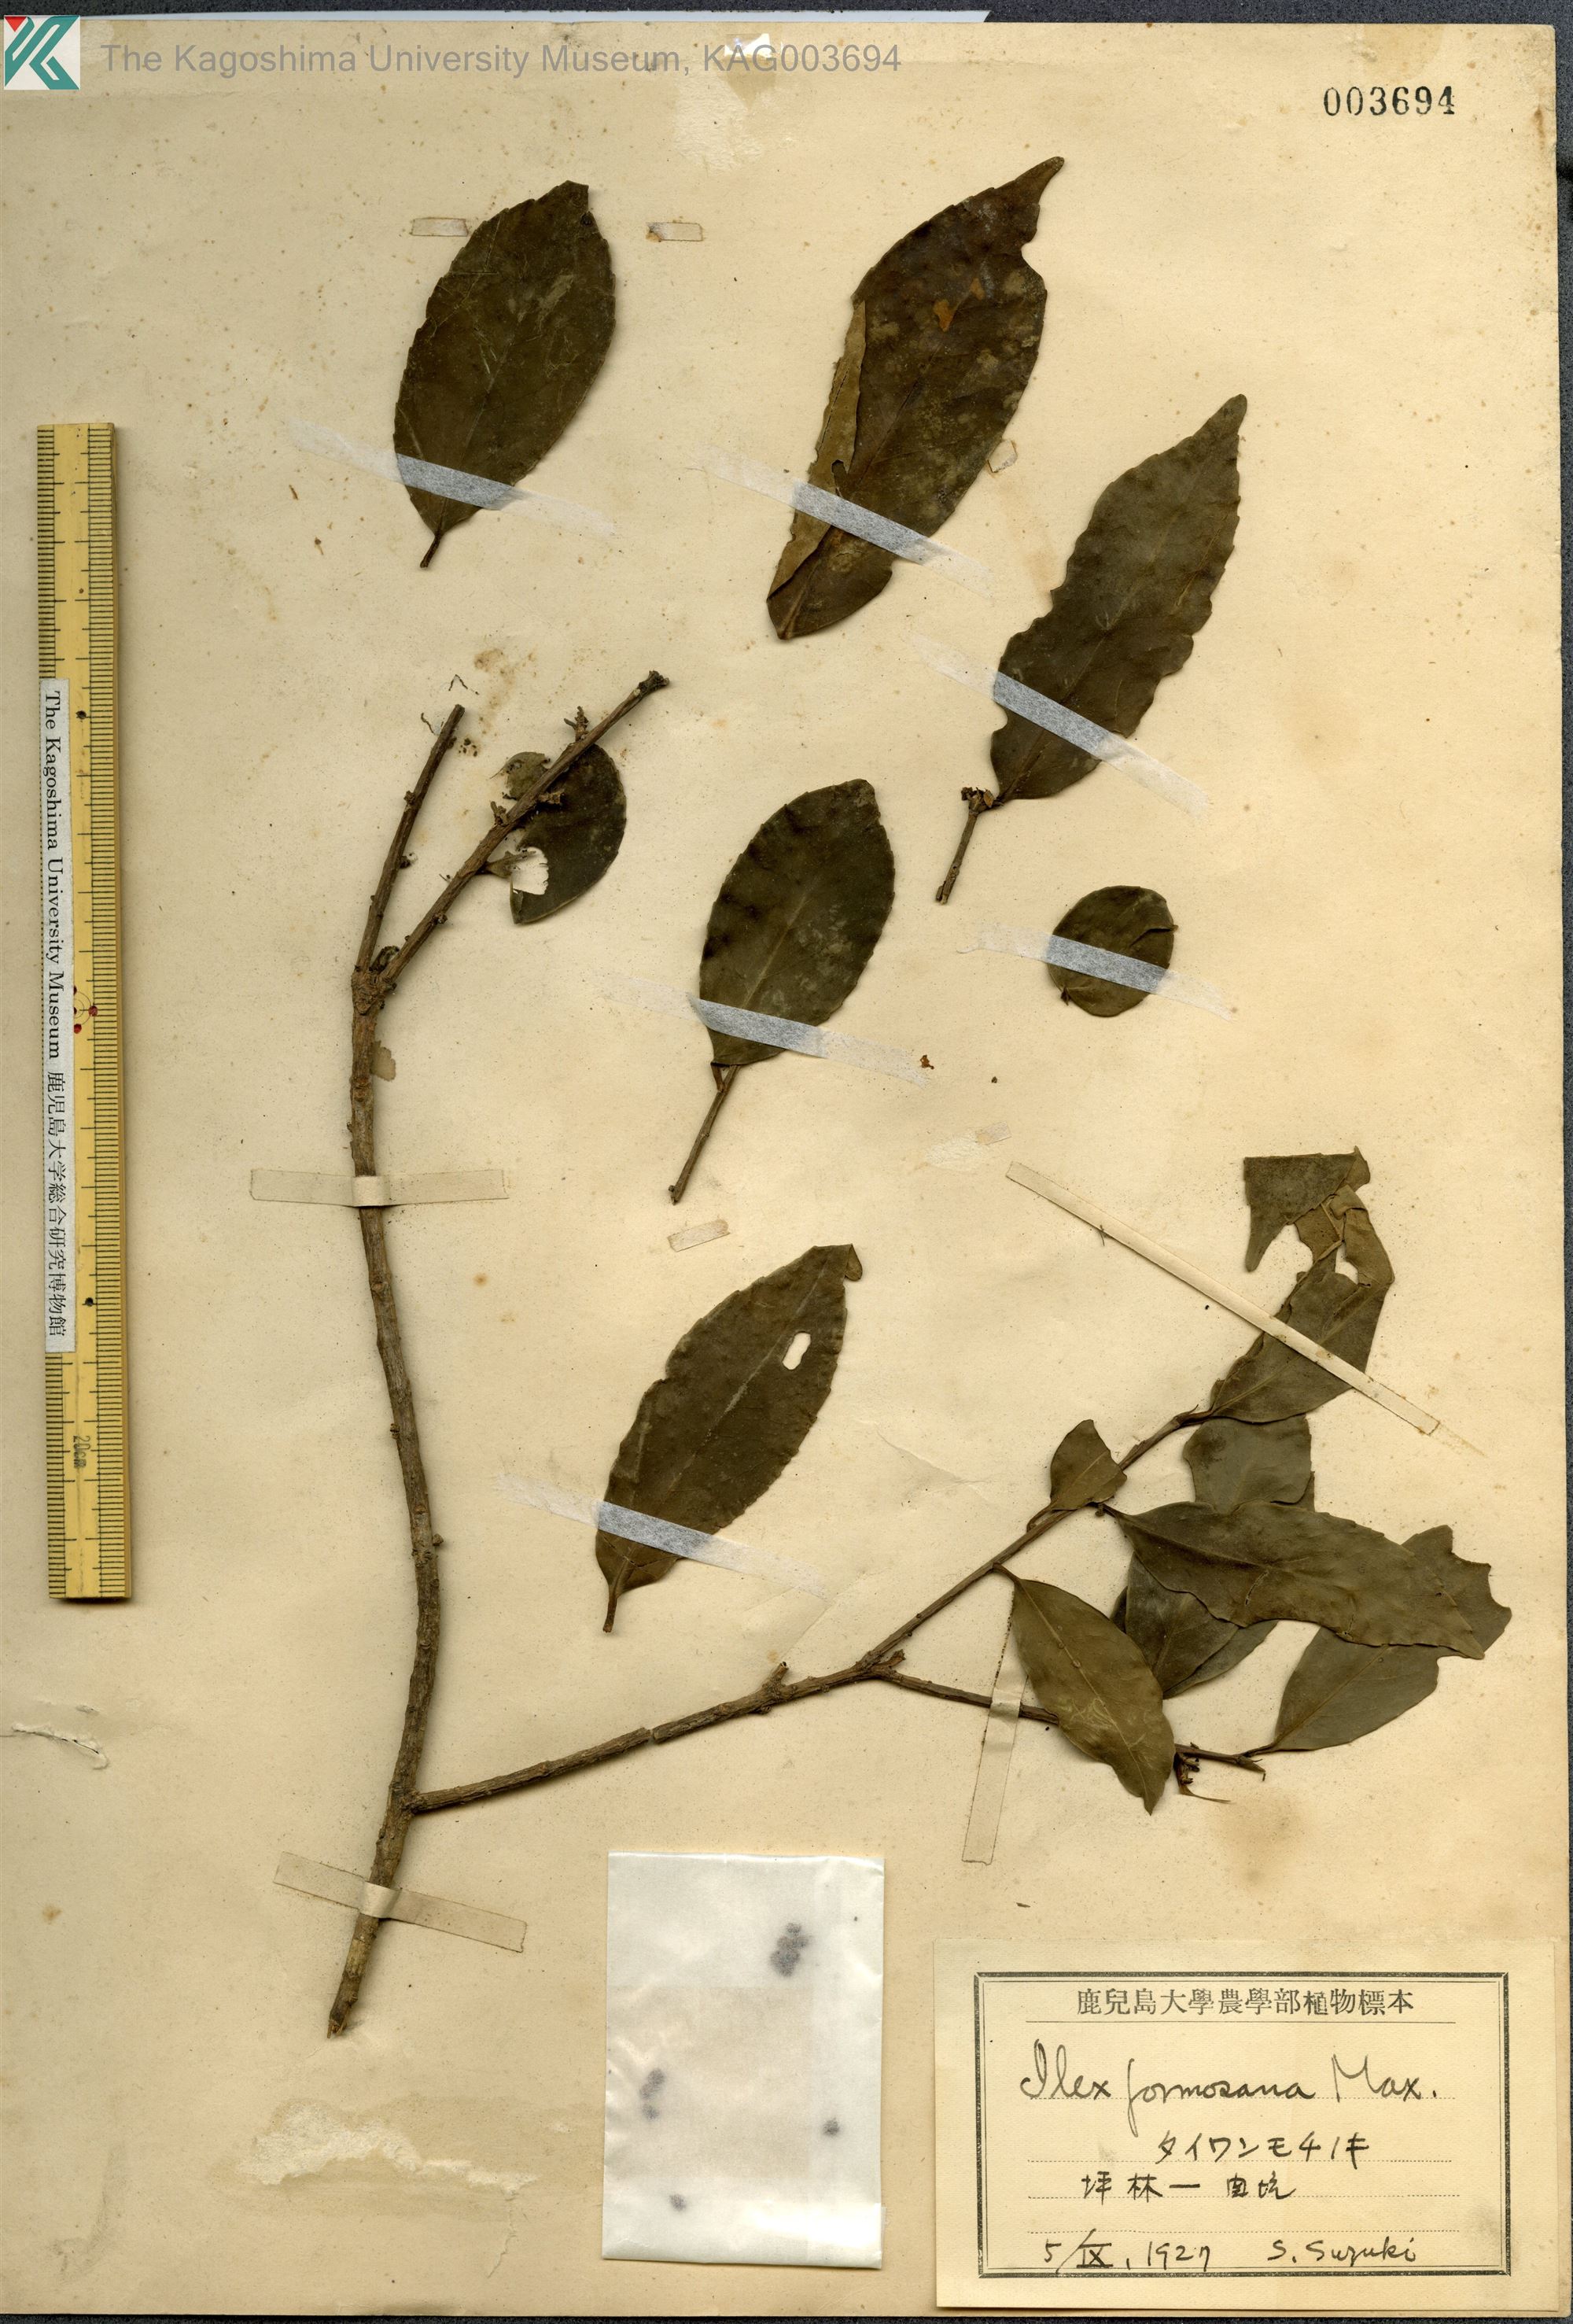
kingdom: Plantae
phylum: Tracheophyta
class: Magnoliopsida
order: Aquifoliales
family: Aquifoliaceae
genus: Ilex
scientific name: Ilex formosana
